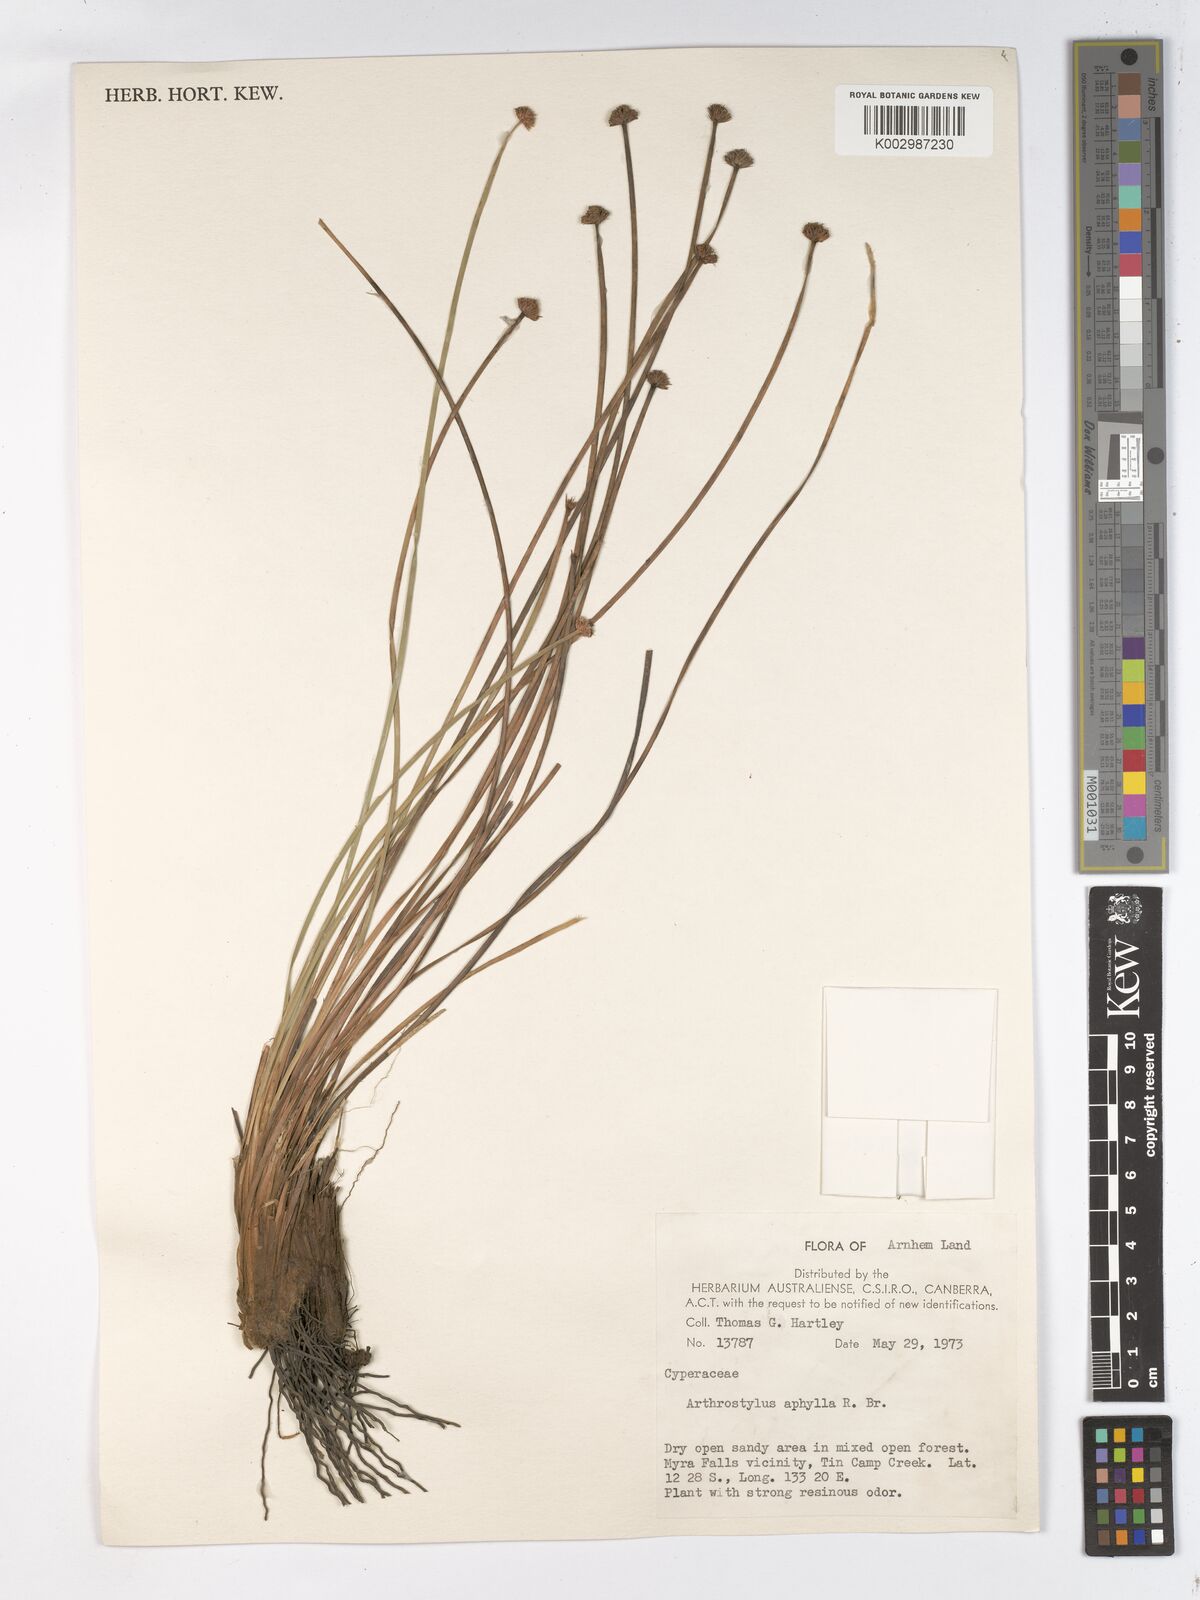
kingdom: Plantae
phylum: Tracheophyta
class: Liliopsida
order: Poales
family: Cyperaceae
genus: Arthrostylis
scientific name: Arthrostylis aphylla
